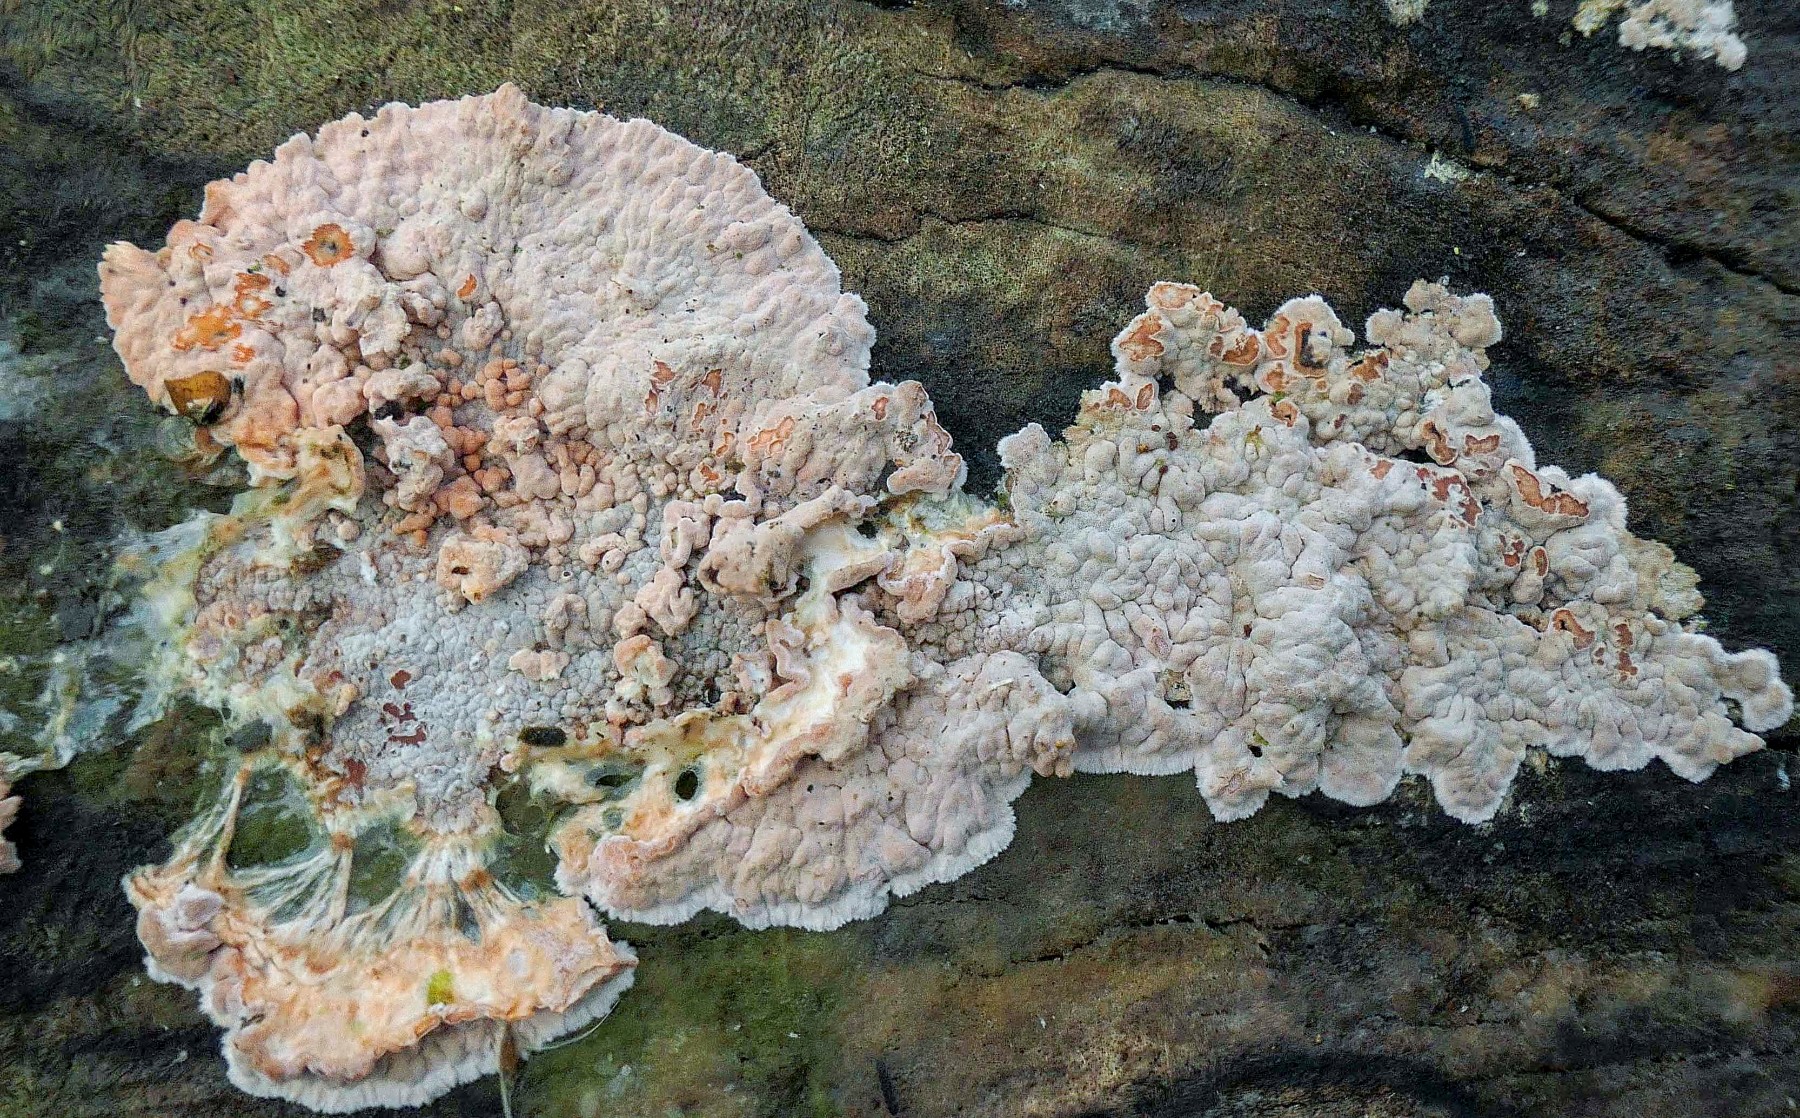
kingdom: Fungi
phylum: Basidiomycota
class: Agaricomycetes
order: Russulales
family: Peniophoraceae
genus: Peniophora
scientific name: Peniophora polygonia
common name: polygon-voksskind
